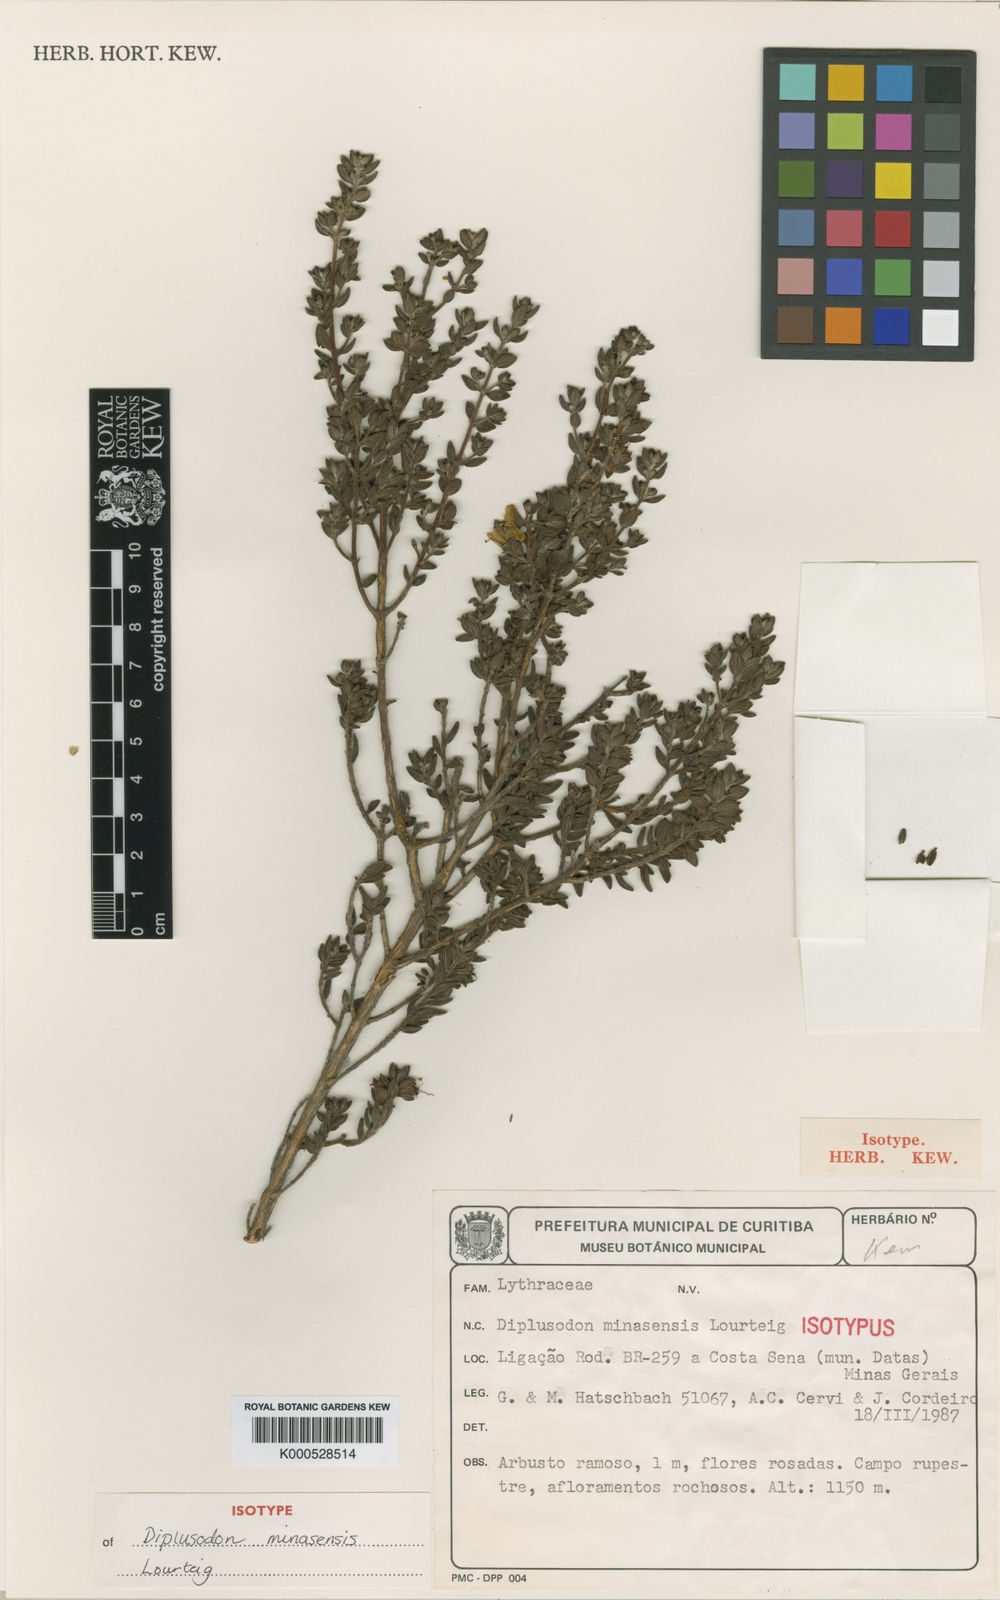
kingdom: Plantae
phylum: Tracheophyta
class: Magnoliopsida
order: Myrtales
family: Lythraceae
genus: Diplusodon
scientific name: Diplusodon minasensis
